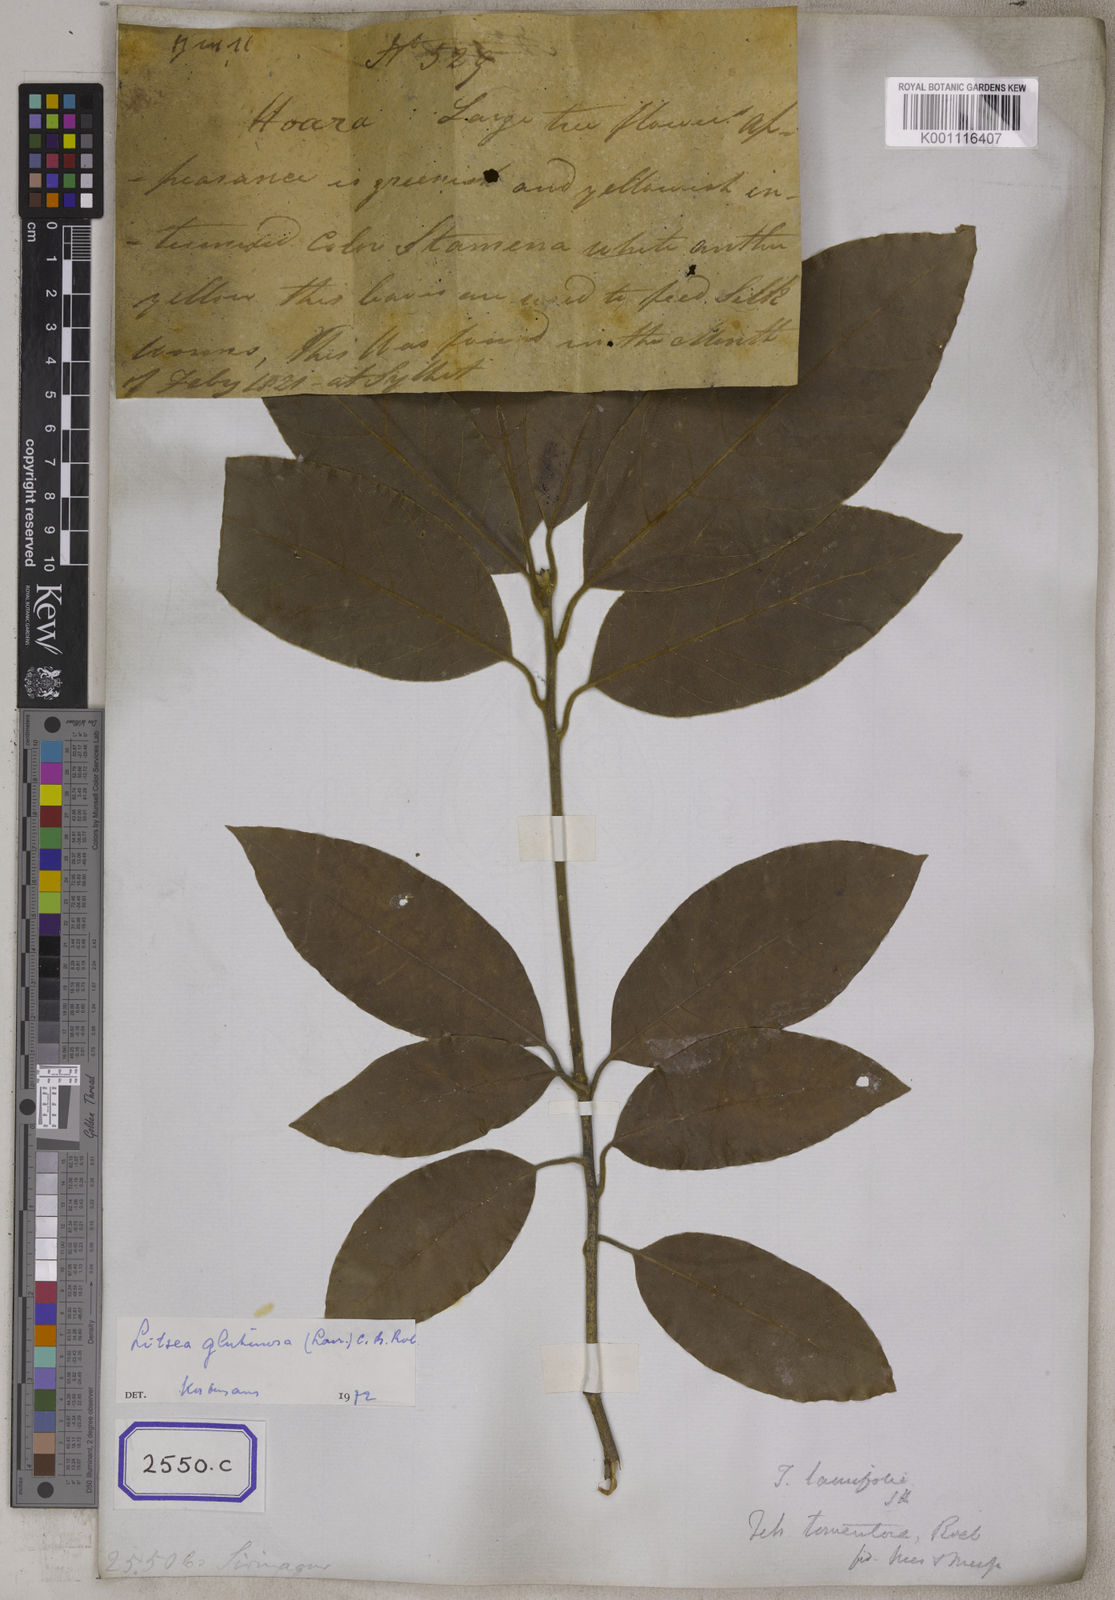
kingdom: Plantae
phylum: Tracheophyta
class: Magnoliopsida
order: Laurales
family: Lauraceae
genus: Litsea
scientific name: Litsea
